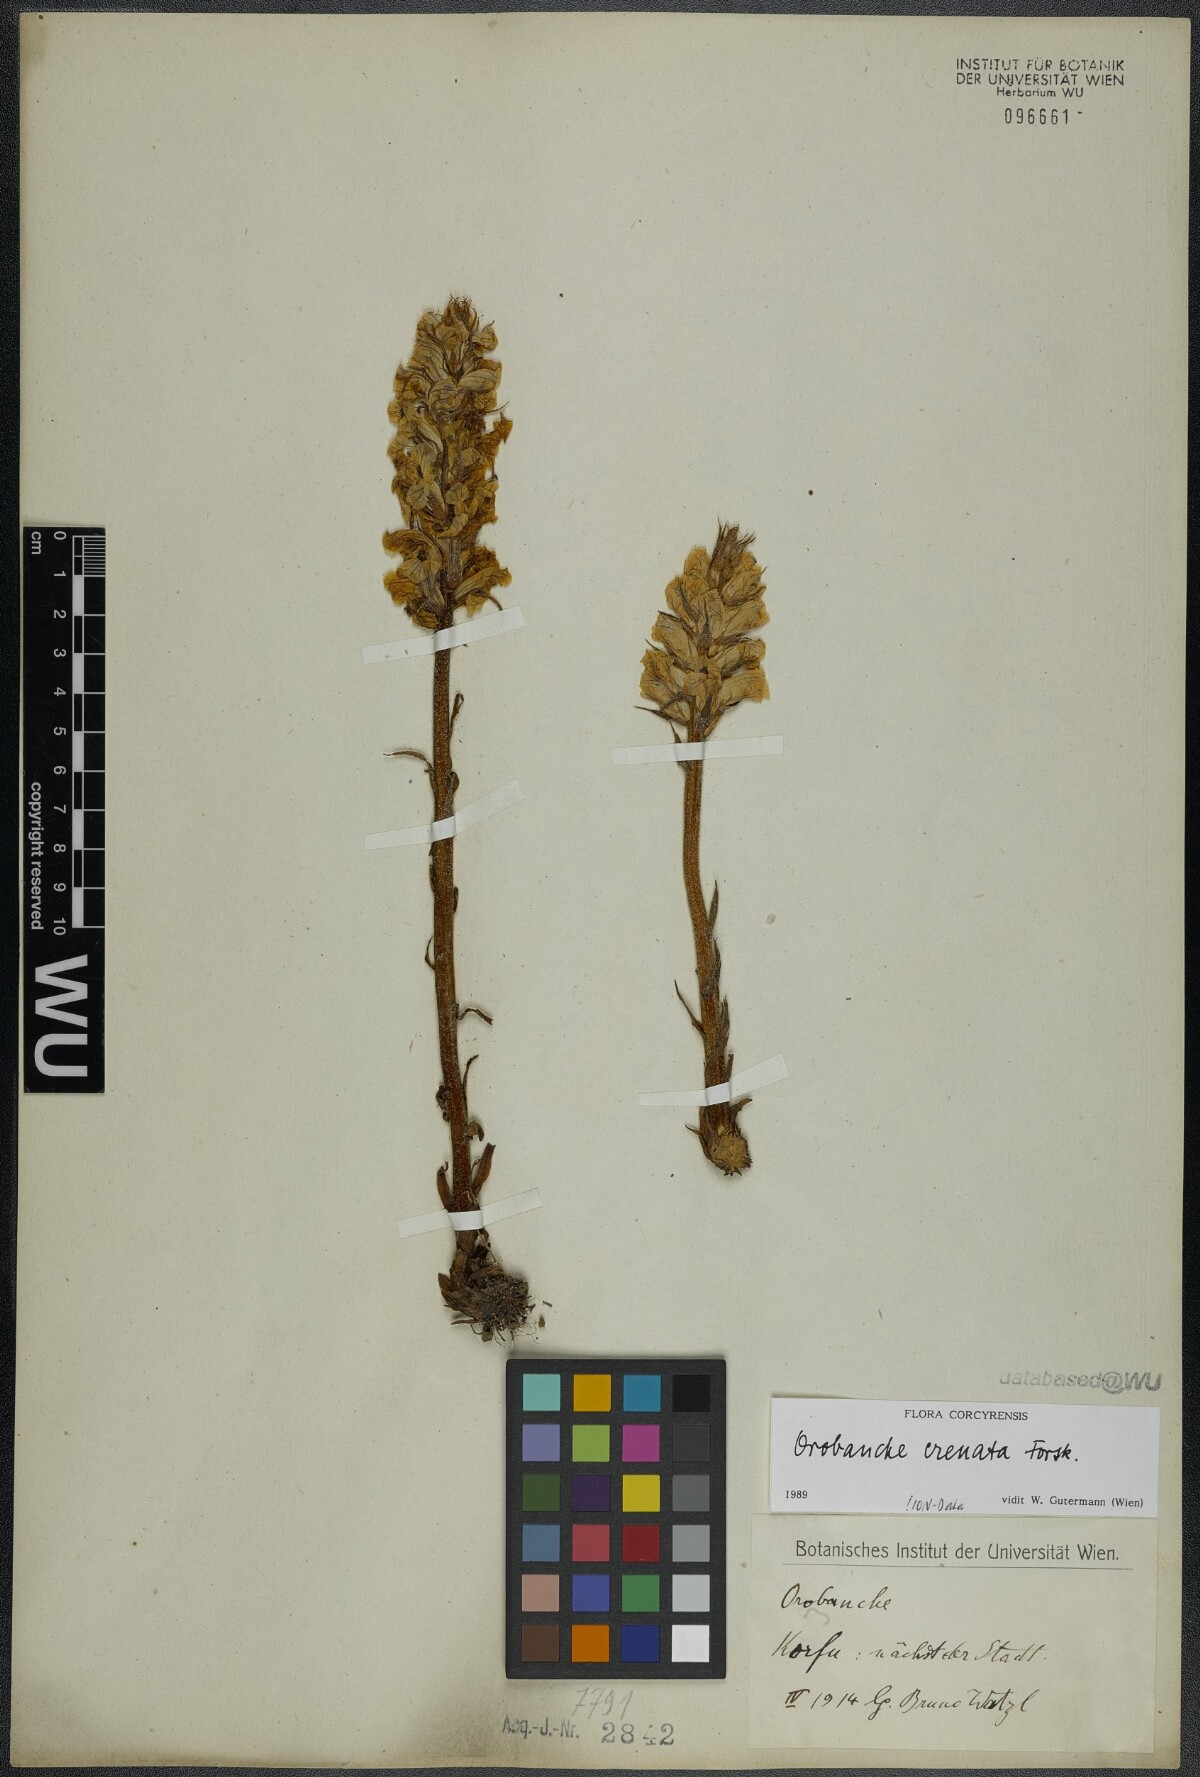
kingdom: Plantae
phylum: Tracheophyta
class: Magnoliopsida
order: Lamiales
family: Orobanchaceae
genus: Orobanche
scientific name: Orobanche crenata
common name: Bean broomrape
